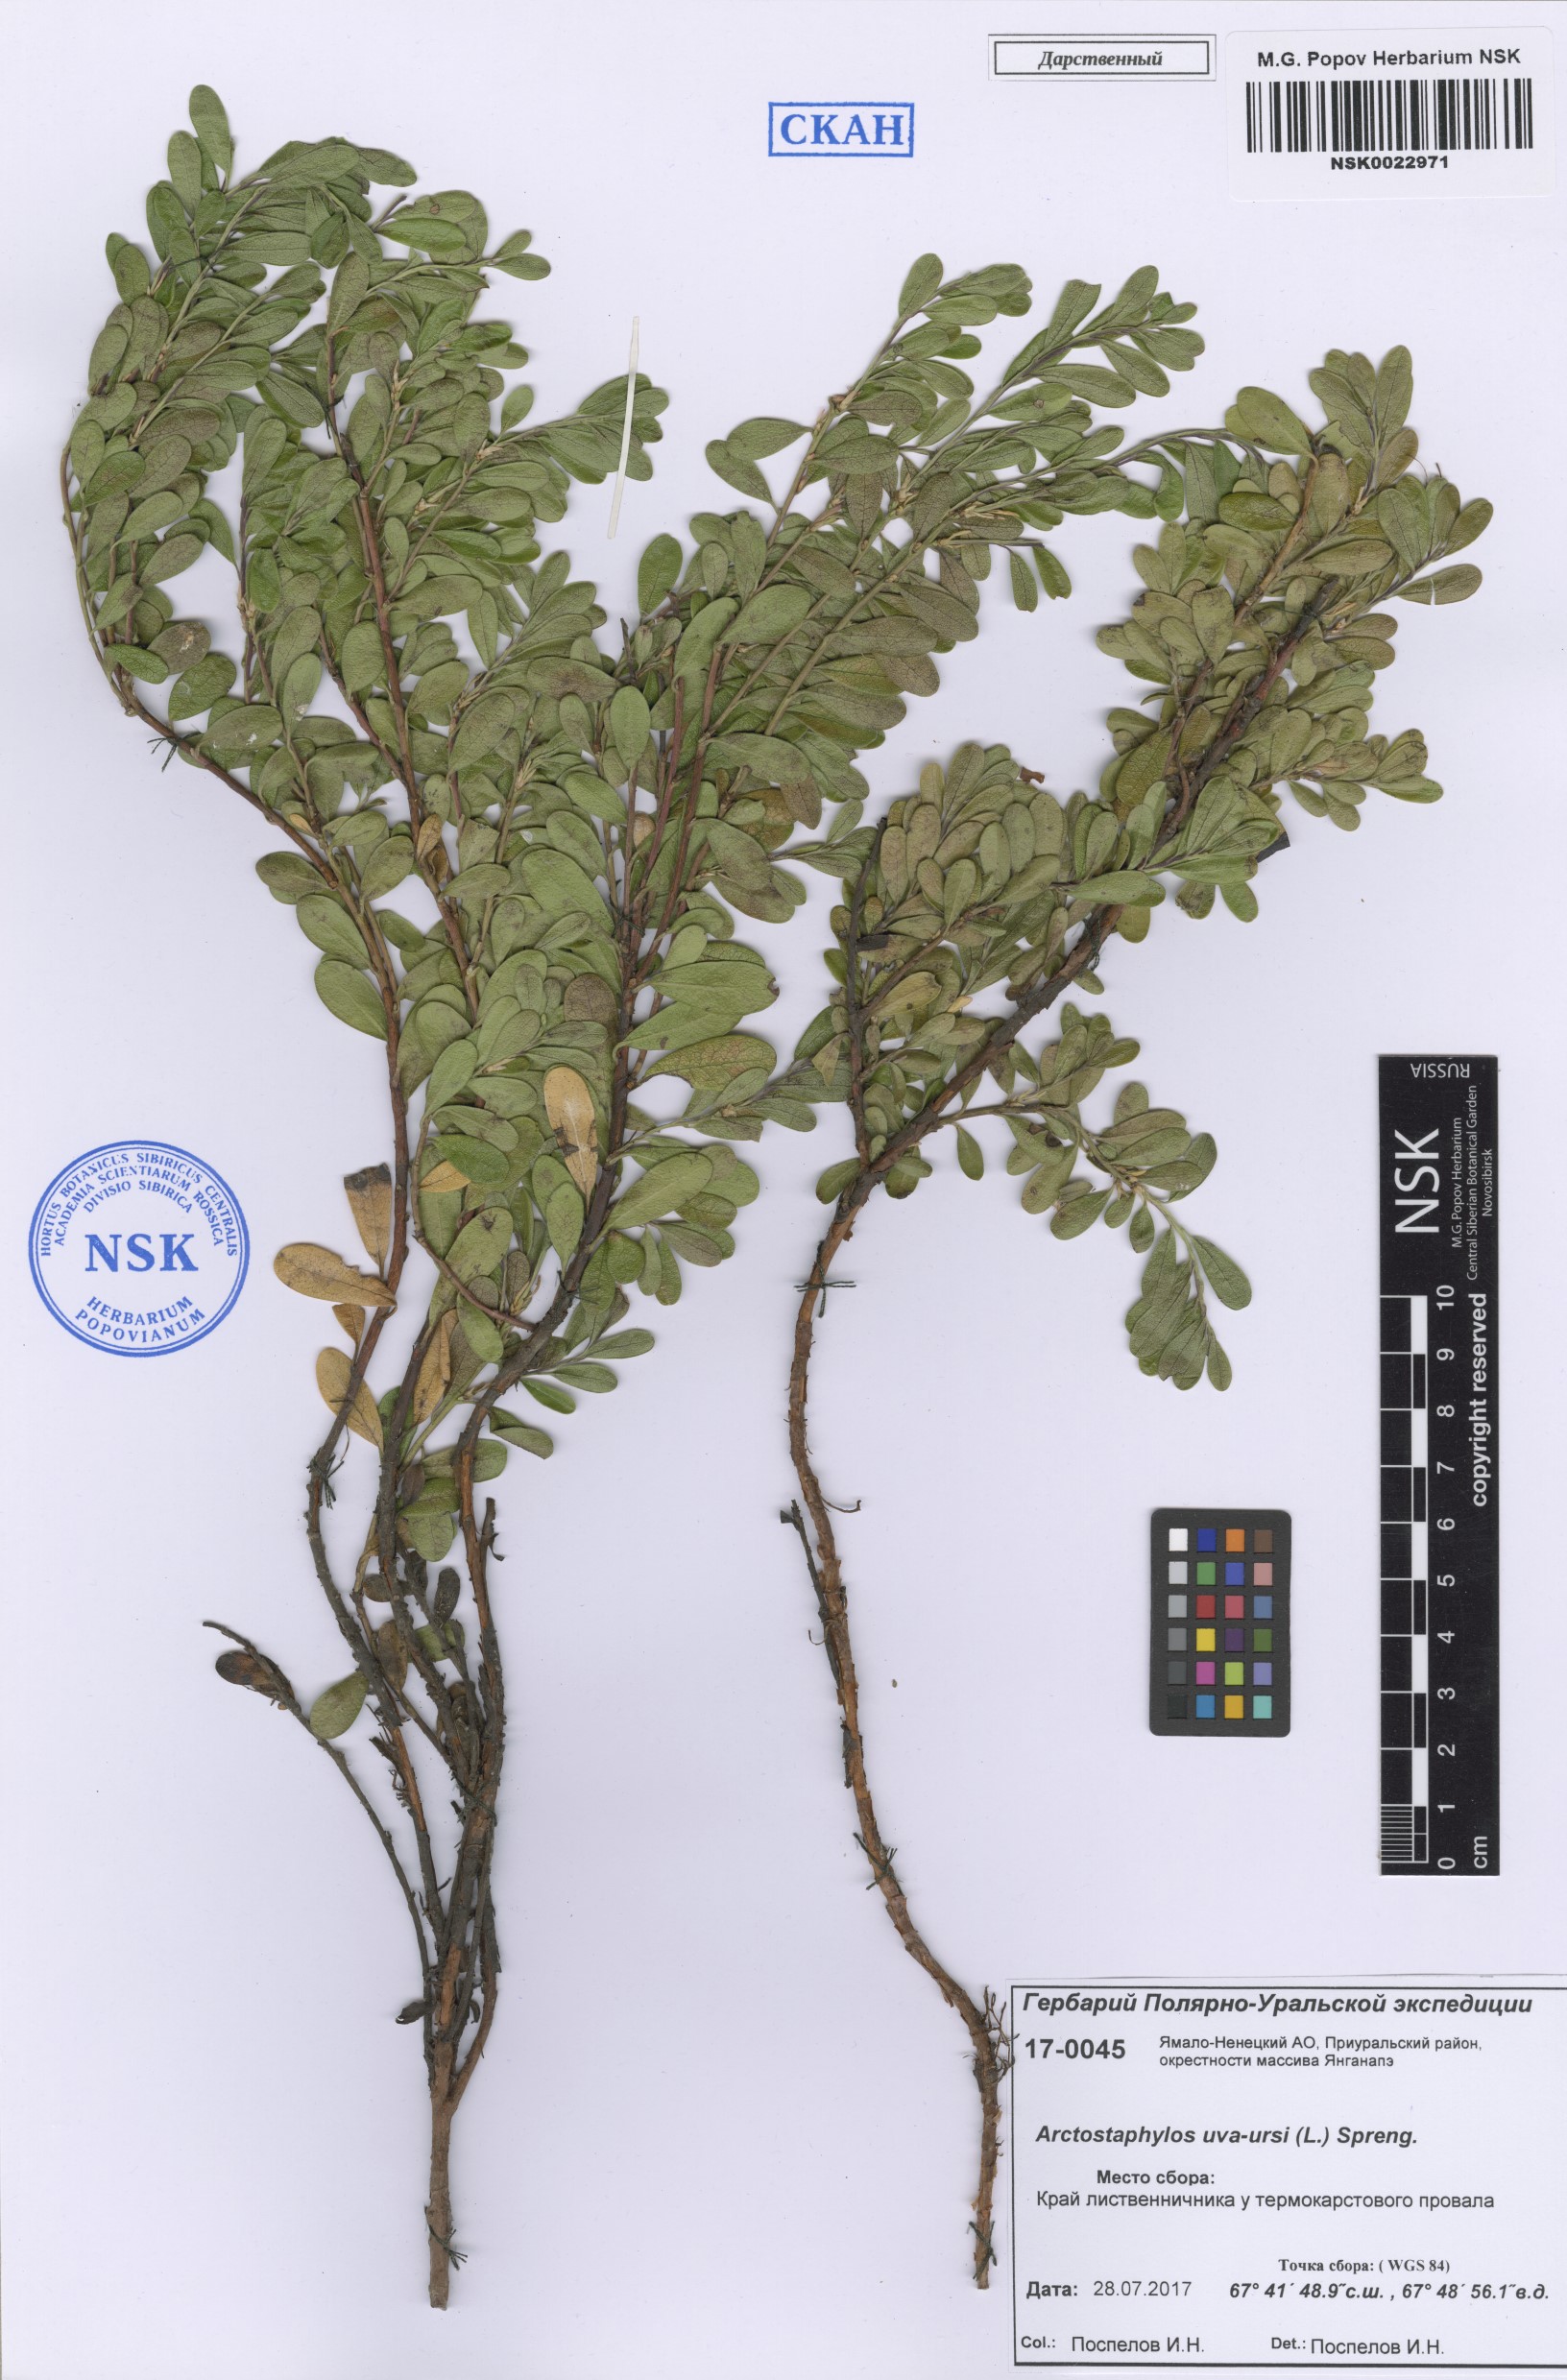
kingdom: Plantae
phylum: Tracheophyta
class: Magnoliopsida
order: Ericales
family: Ericaceae
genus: Arctostaphylos
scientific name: Arctostaphylos uva-ursi
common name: Bearberry
